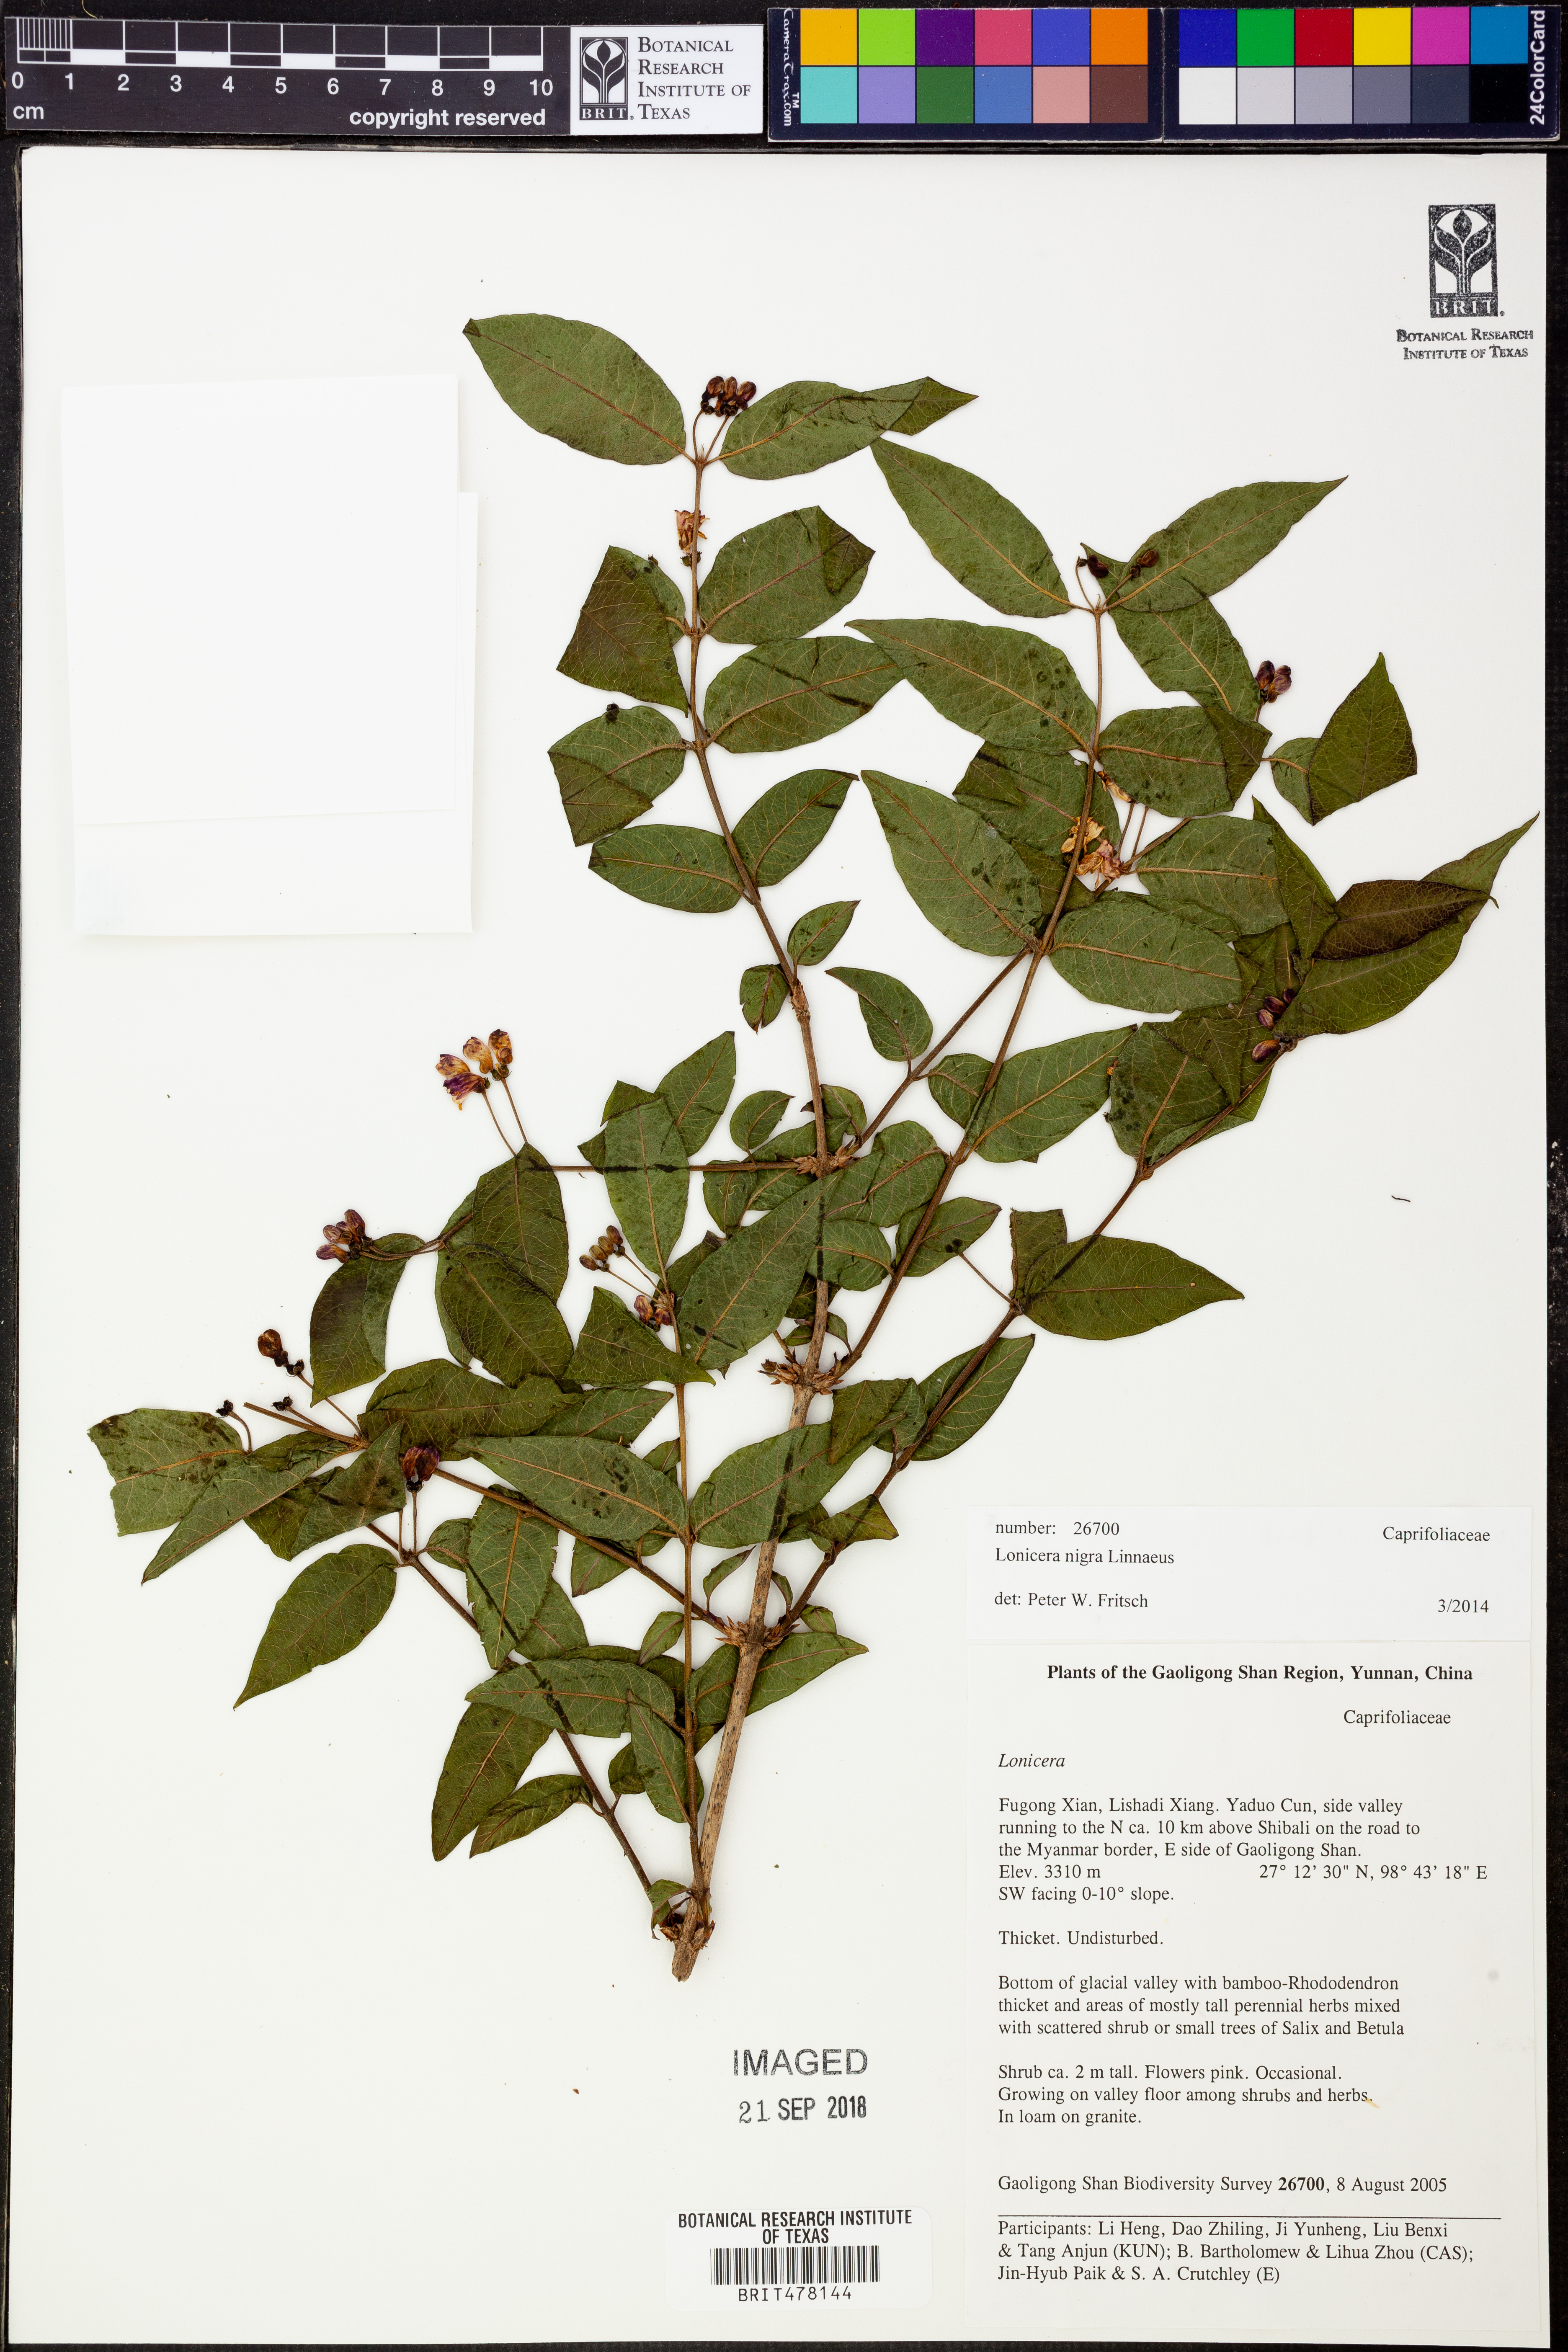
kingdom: Plantae
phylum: Tracheophyta
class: Magnoliopsida
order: Dipsacales
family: Caprifoliaceae
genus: Lonicera
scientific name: Lonicera nigra
